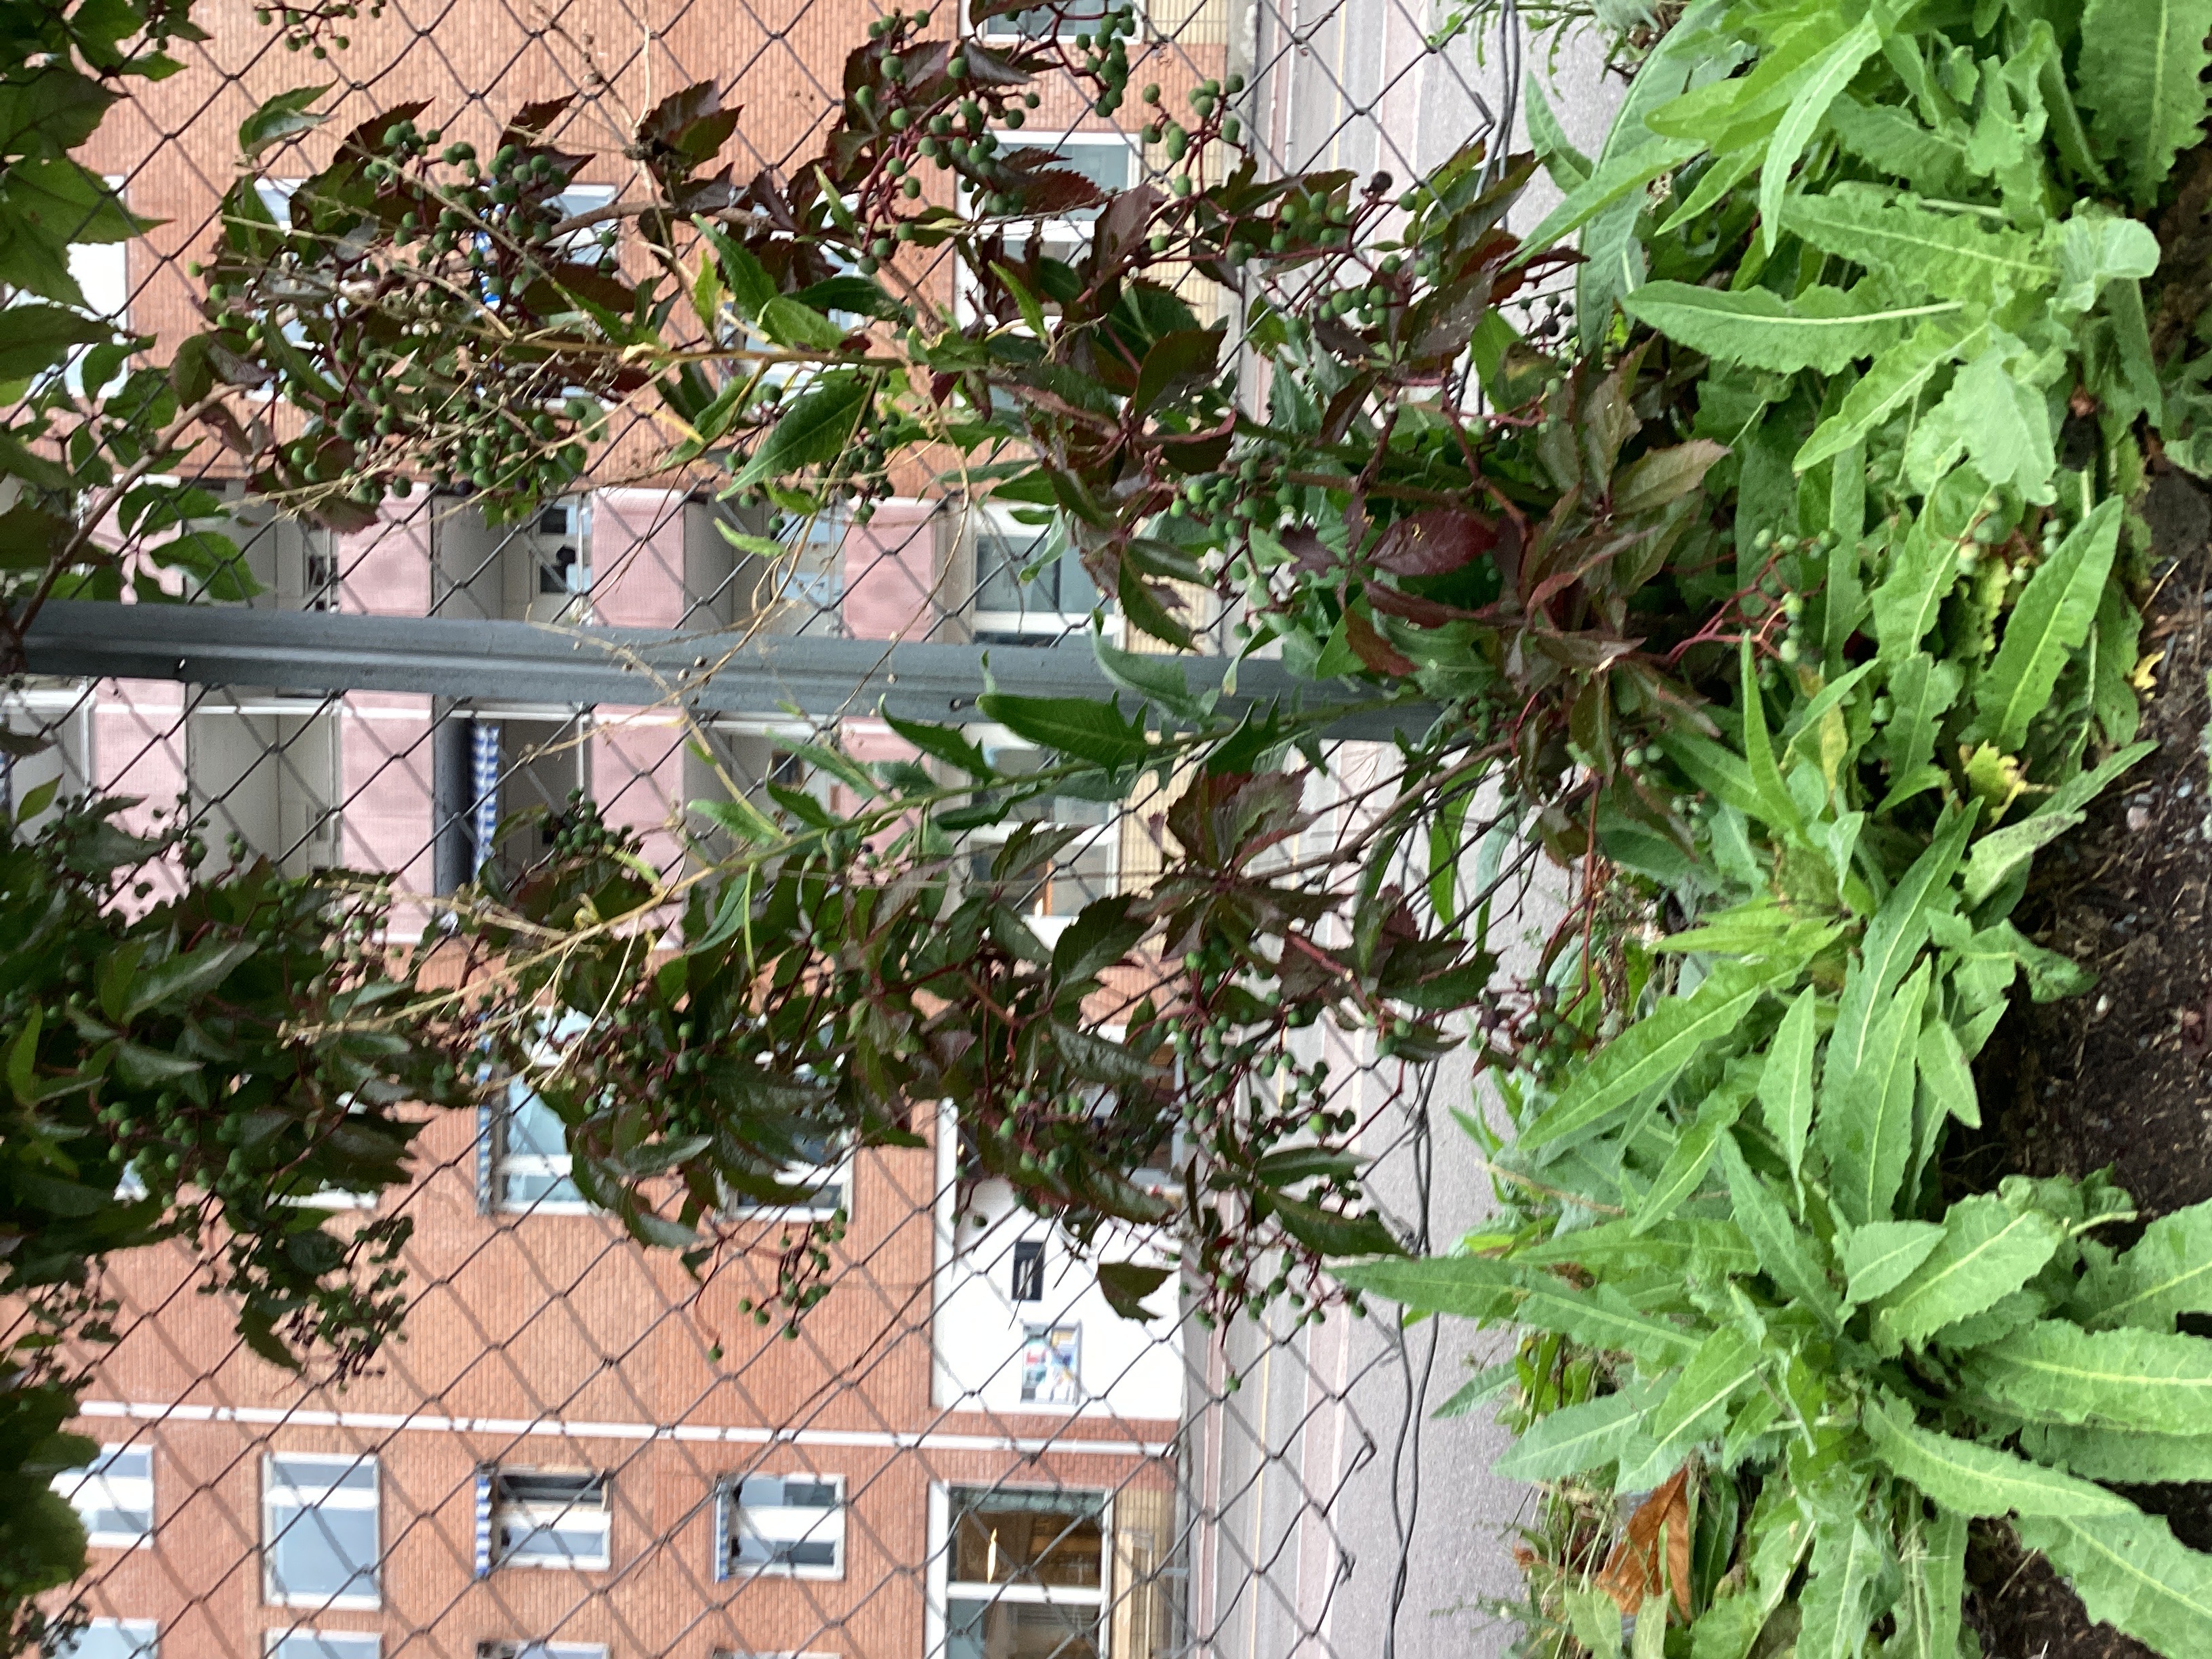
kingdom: Plantae
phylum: Tracheophyta
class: Magnoliopsida
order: Brassicales
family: Brassicaceae
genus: Bunias
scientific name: Bunias orientalis
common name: russekål
